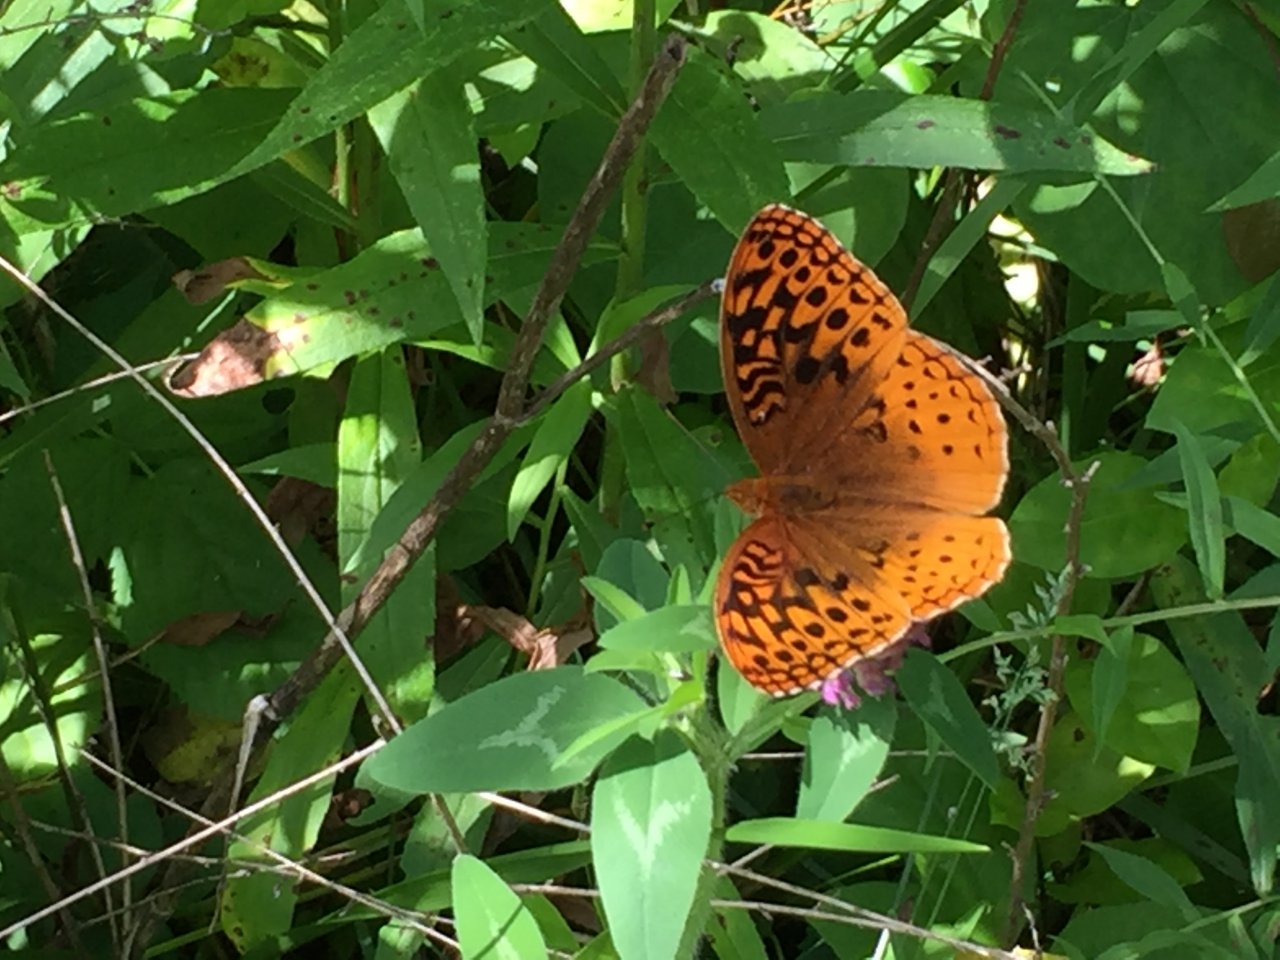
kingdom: Animalia
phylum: Arthropoda
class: Insecta
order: Lepidoptera
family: Nymphalidae
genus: Speyeria
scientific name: Speyeria cybele
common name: Great Spangled Fritillary
